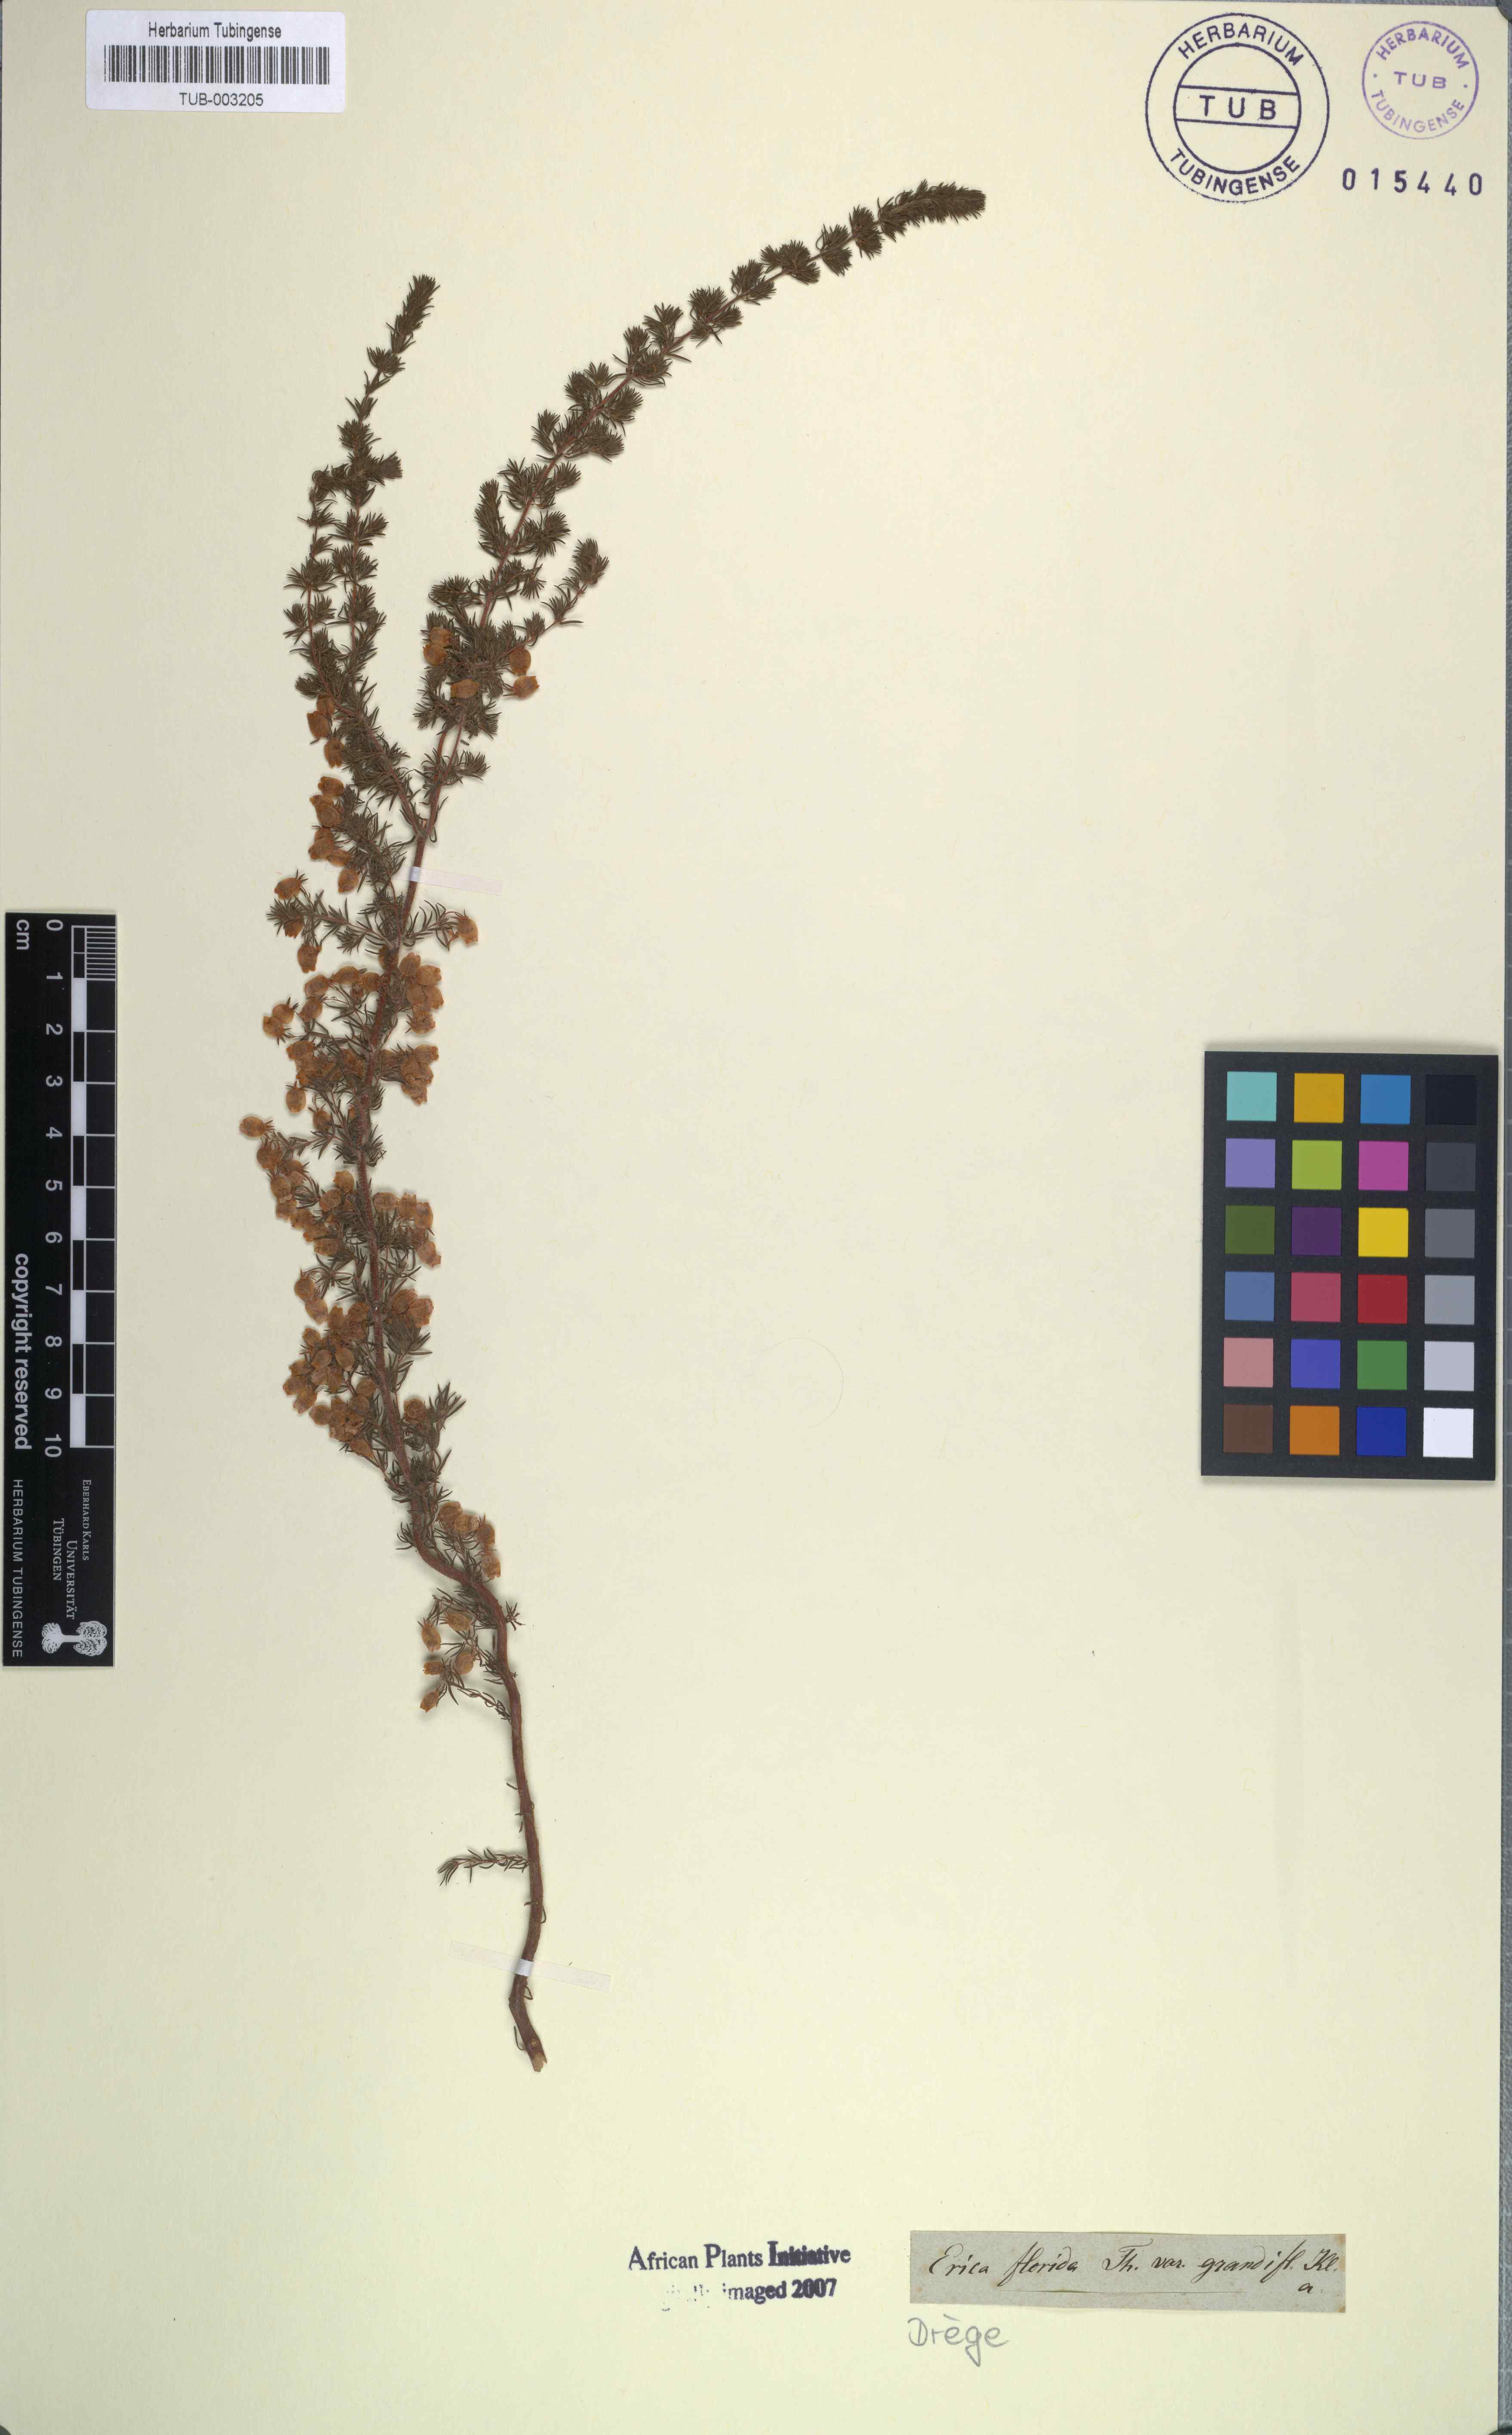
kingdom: Plantae
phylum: Tracheophyta
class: Magnoliopsida
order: Ericales
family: Ericaceae
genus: Erica
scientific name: Erica bergiana
